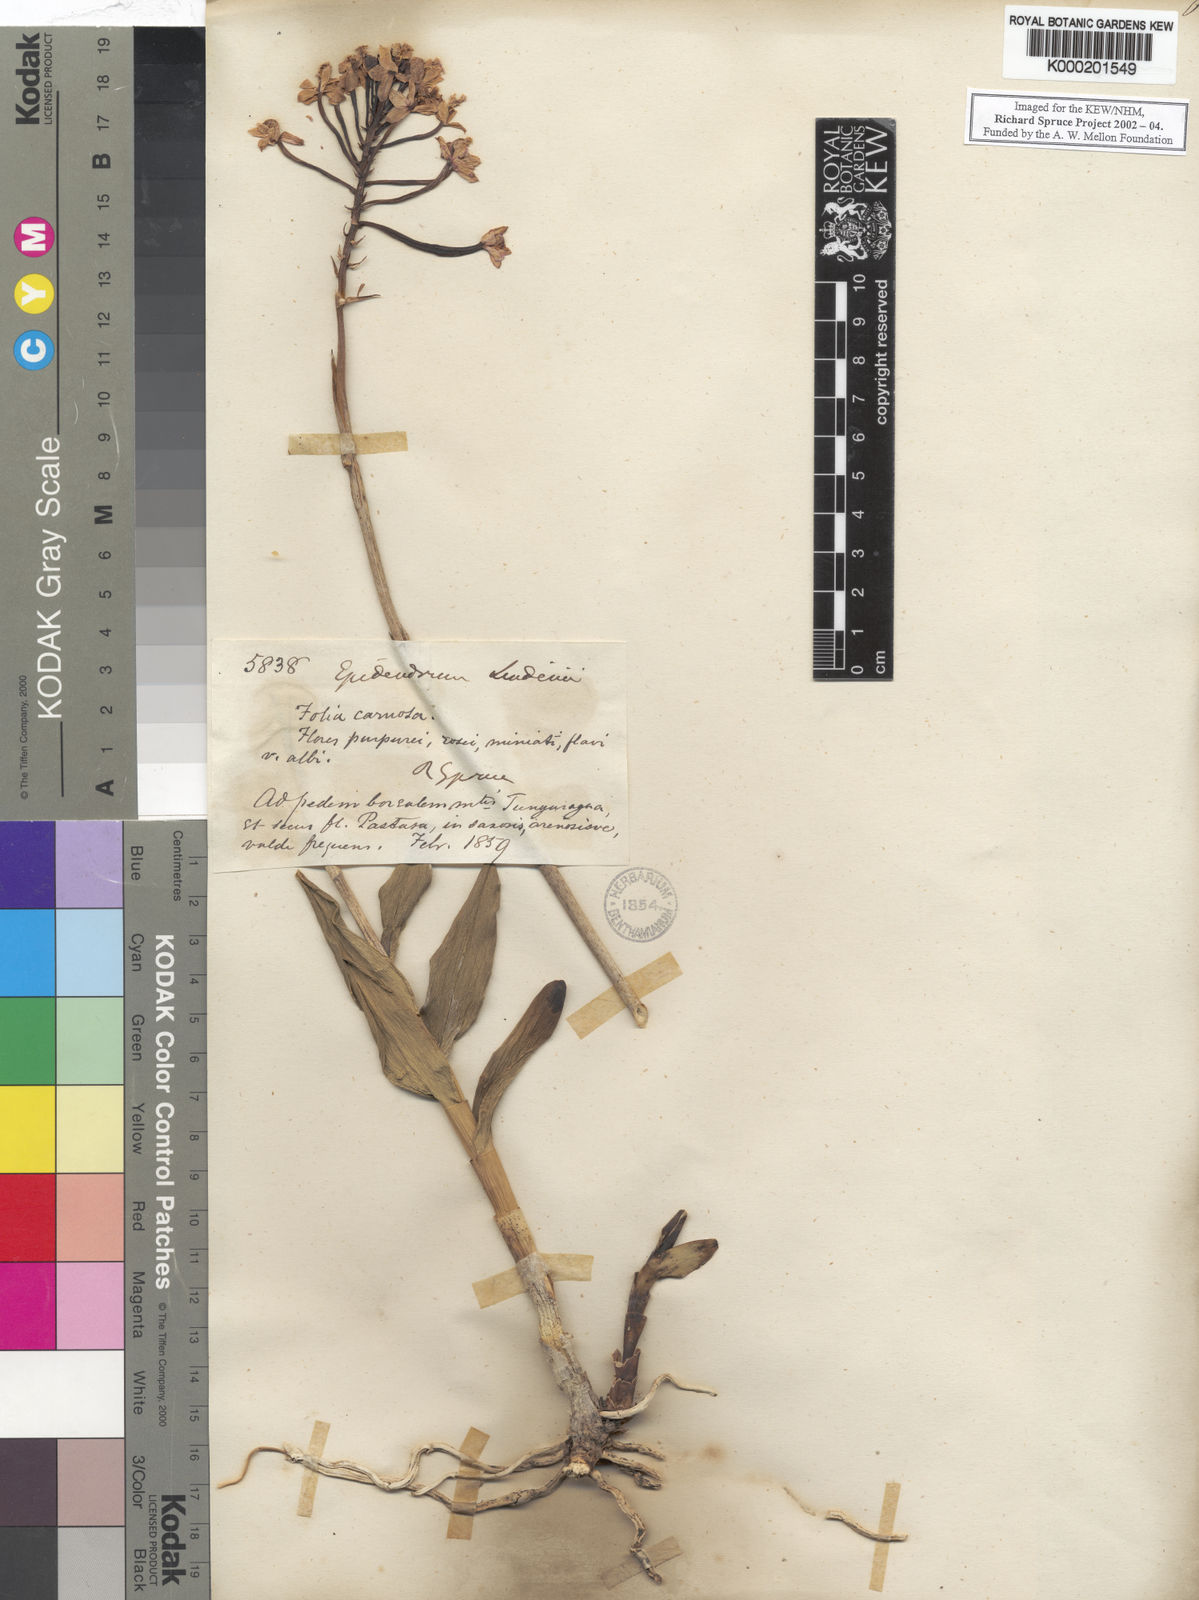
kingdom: Plantae
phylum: Tracheophyta
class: Liliopsida
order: Asparagales
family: Orchidaceae
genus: Epidendrum
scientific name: Epidendrum dichotomum
